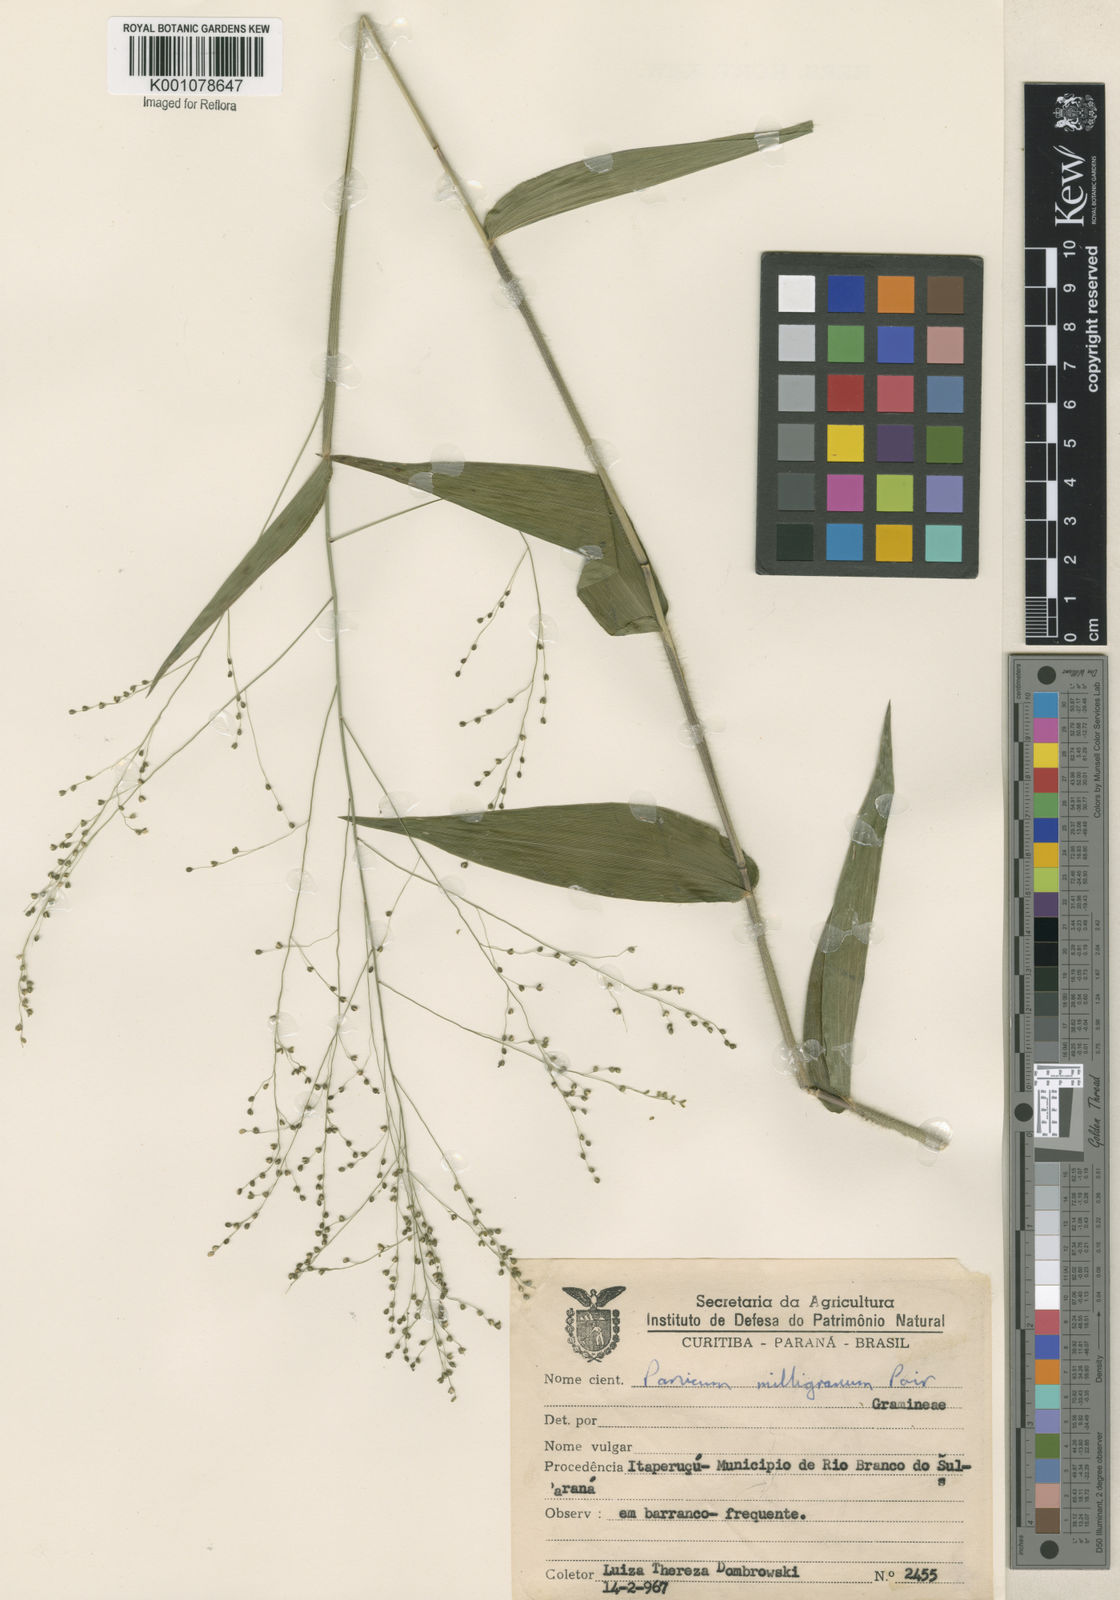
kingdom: Plantae
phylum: Tracheophyta
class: Liliopsida
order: Poales
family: Poaceae
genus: Panicum
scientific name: Panicum millegrana
